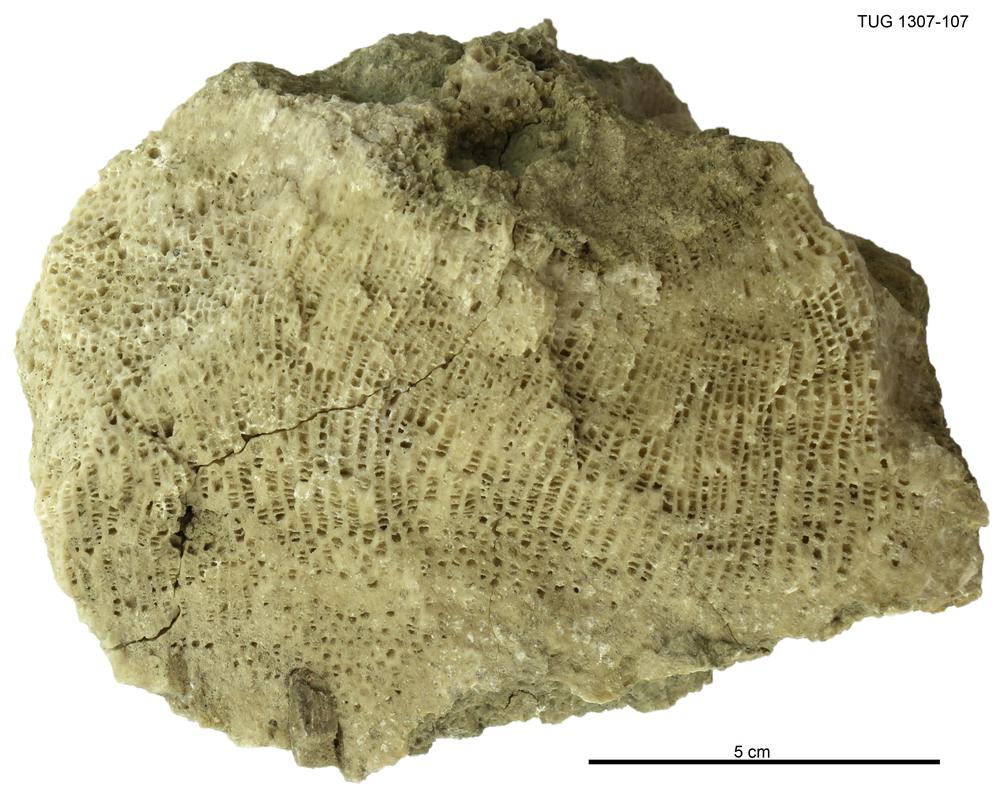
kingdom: Animalia
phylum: Cnidaria
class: Anthozoa
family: Favositidae
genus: Saffordophyllum
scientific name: Saffordophyllum
